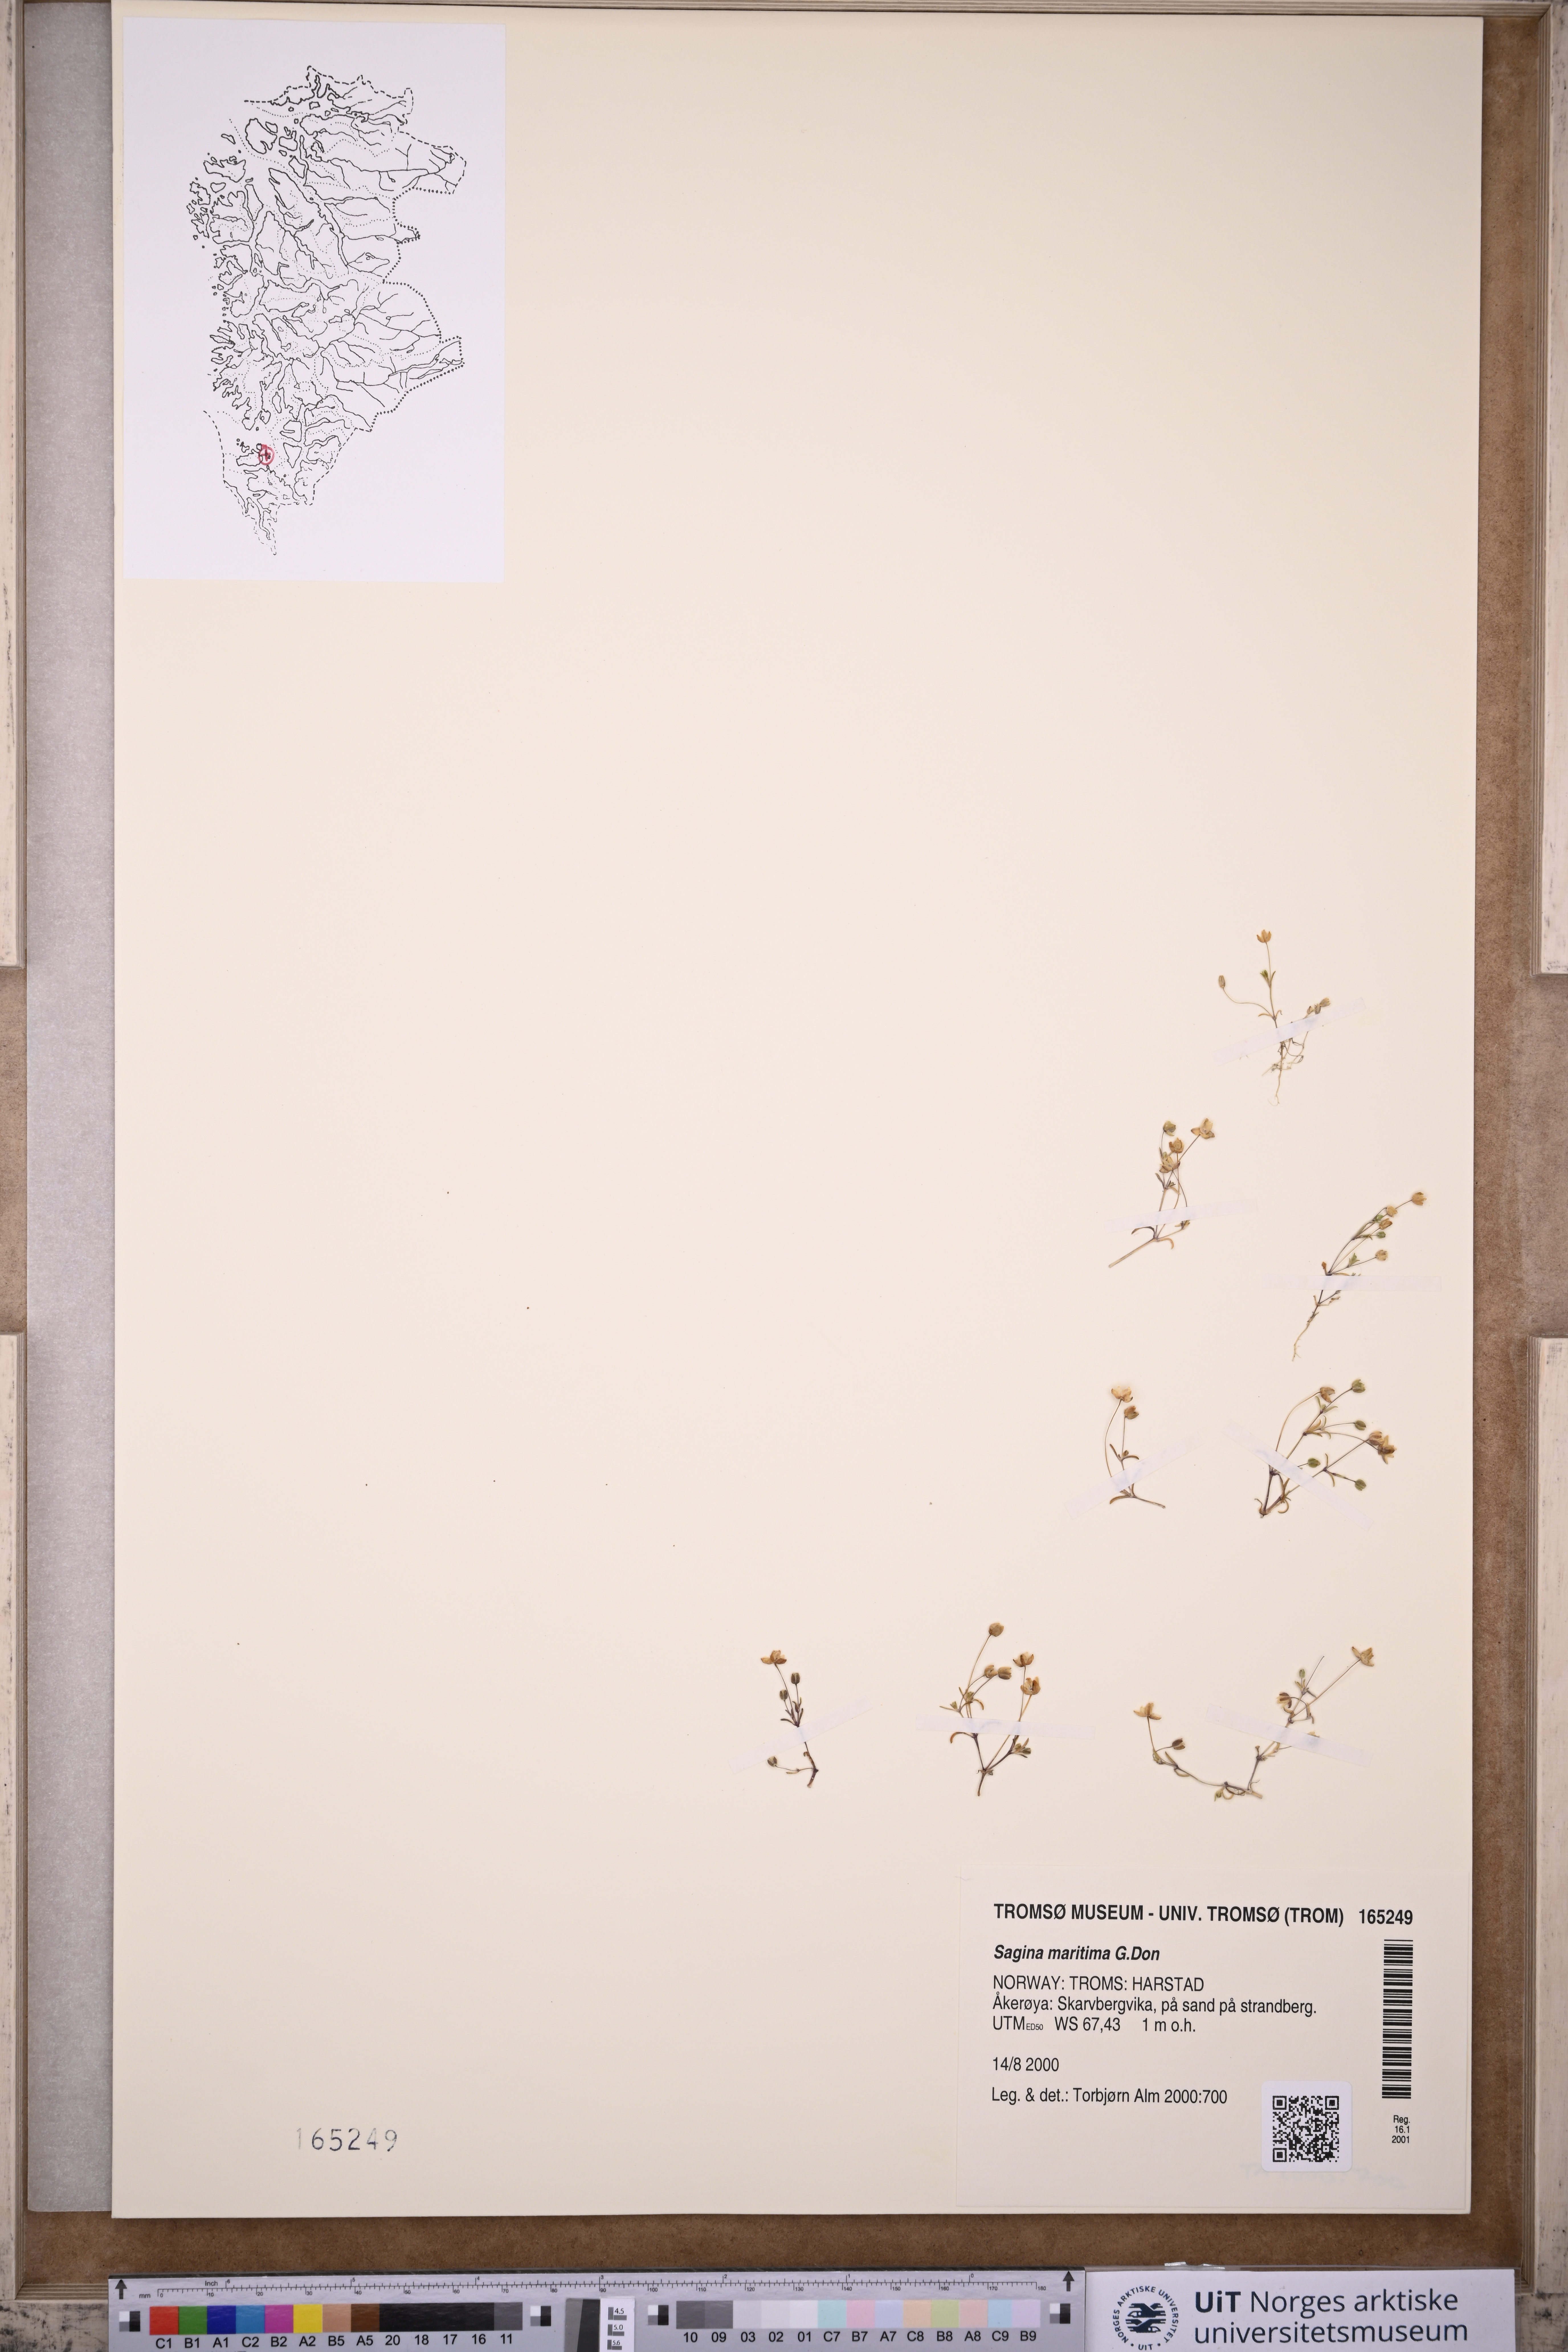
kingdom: Plantae
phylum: Tracheophyta
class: Magnoliopsida
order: Caryophyllales
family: Caryophyllaceae
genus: Sagina
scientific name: Sagina maritima
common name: Sea pearlwort
